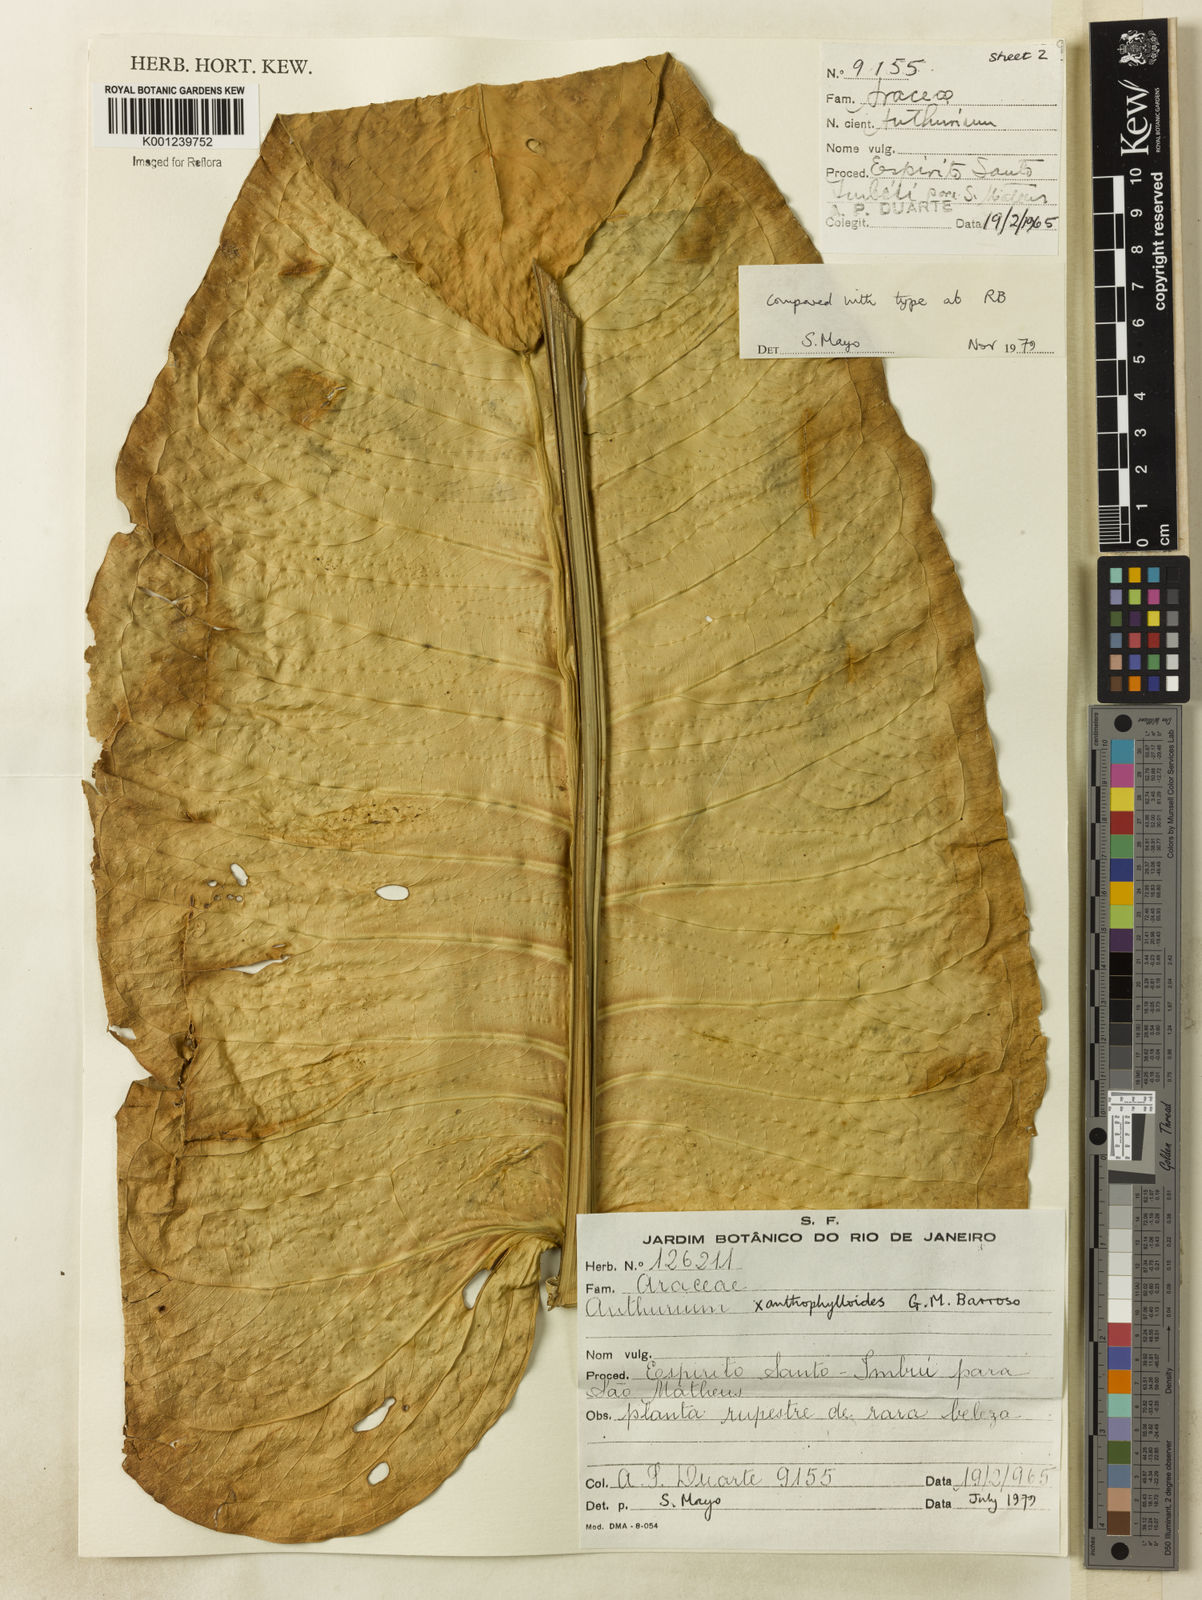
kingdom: Plantae
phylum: Tracheophyta
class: Liliopsida
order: Alismatales
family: Araceae
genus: Anthurium
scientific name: Anthurium xanthophylloides
